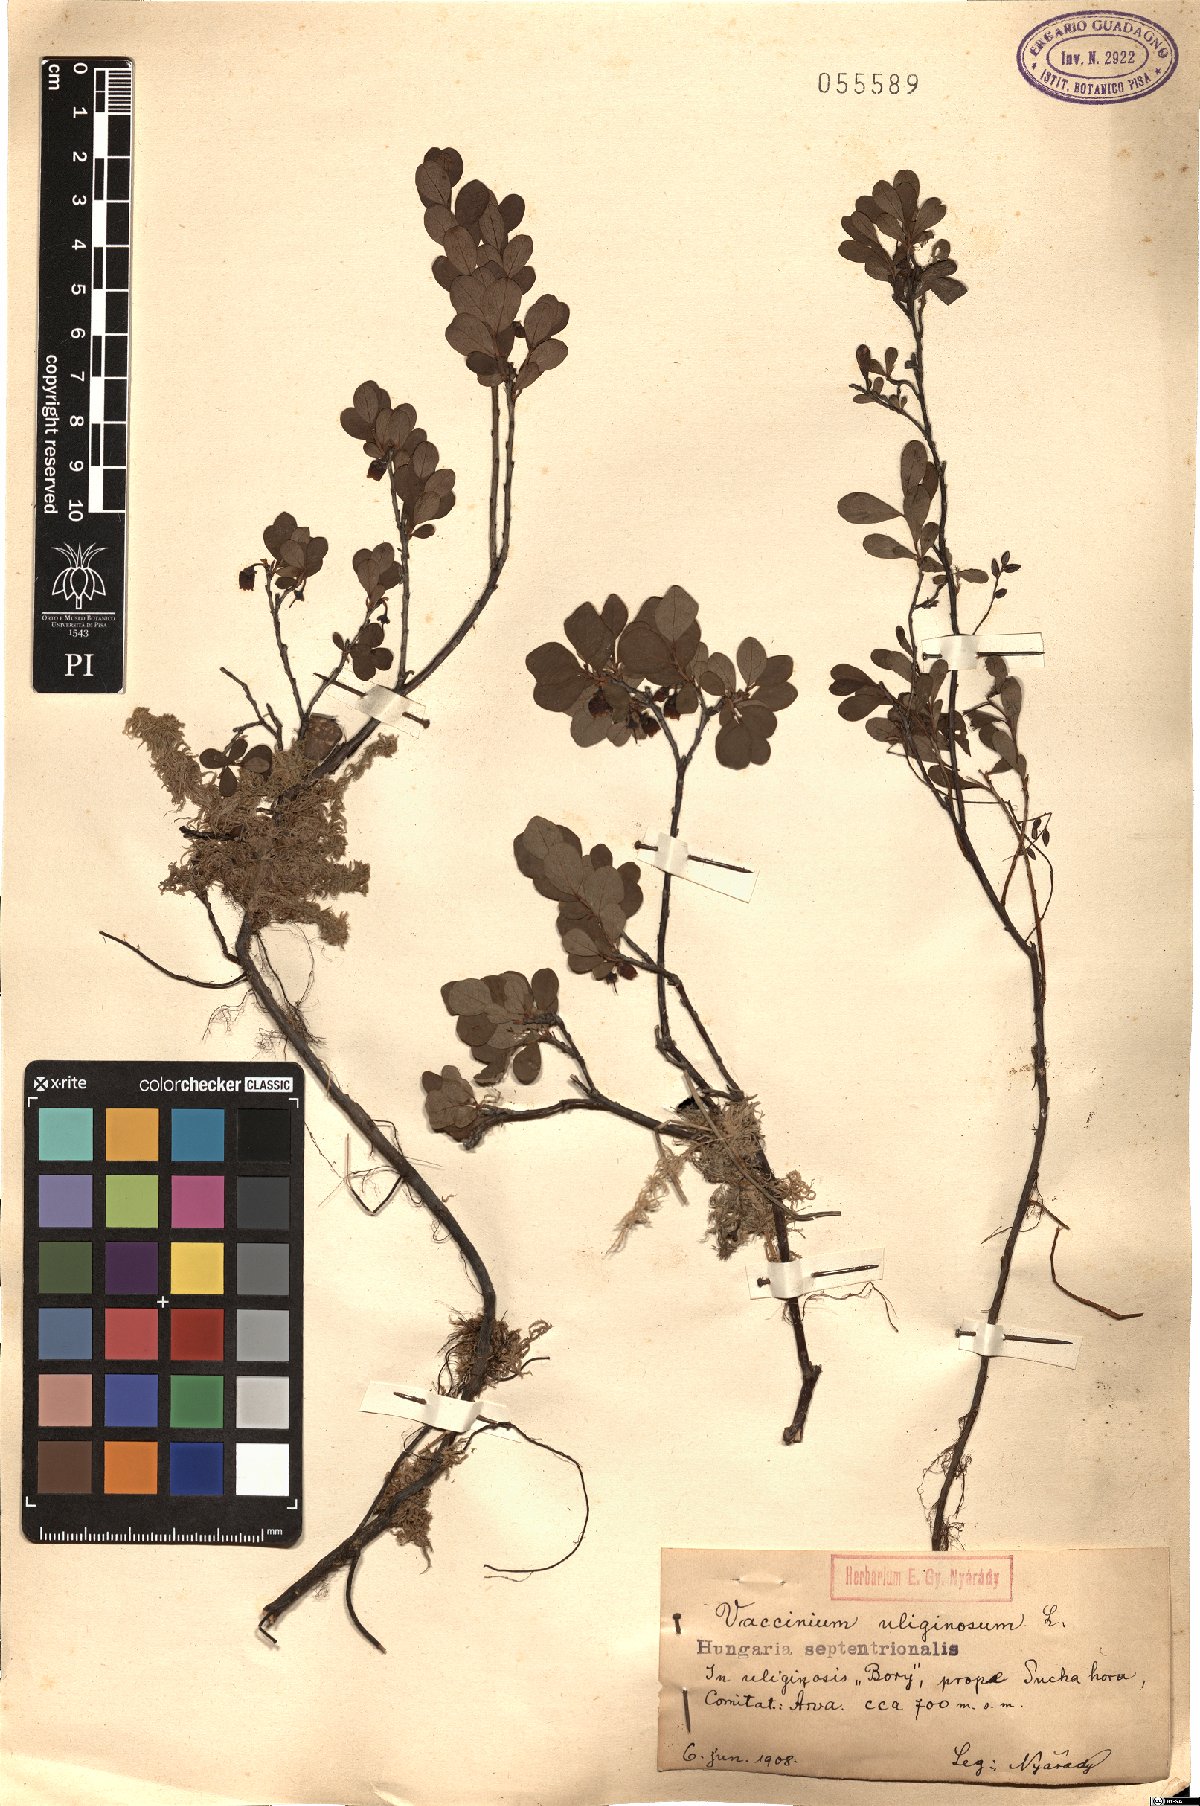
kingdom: Plantae
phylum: Tracheophyta
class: Magnoliopsida
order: Ericales
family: Ericaceae
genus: Vaccinium
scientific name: Vaccinium uliginosum
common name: Bog bilberry
